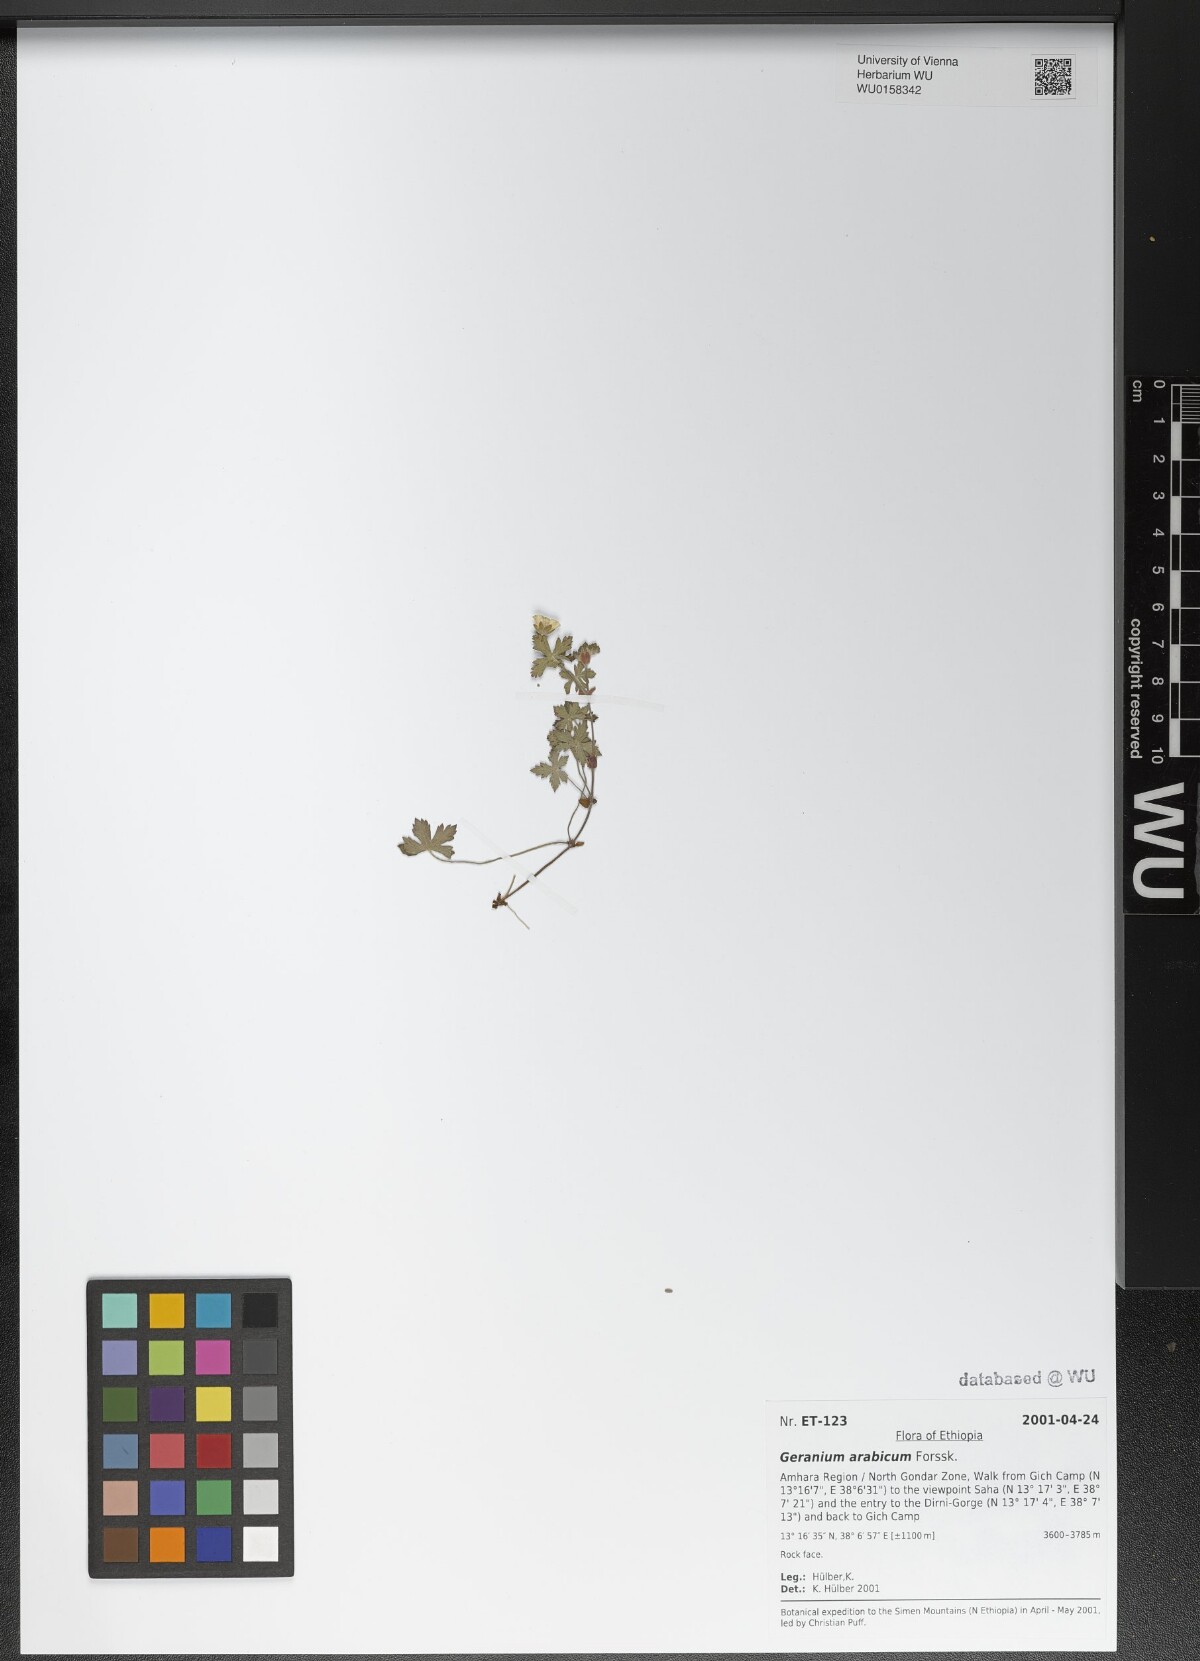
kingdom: Plantae
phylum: Tracheophyta
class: Magnoliopsida
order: Geraniales
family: Geraniaceae
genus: Geranium
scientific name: Geranium arabicum
